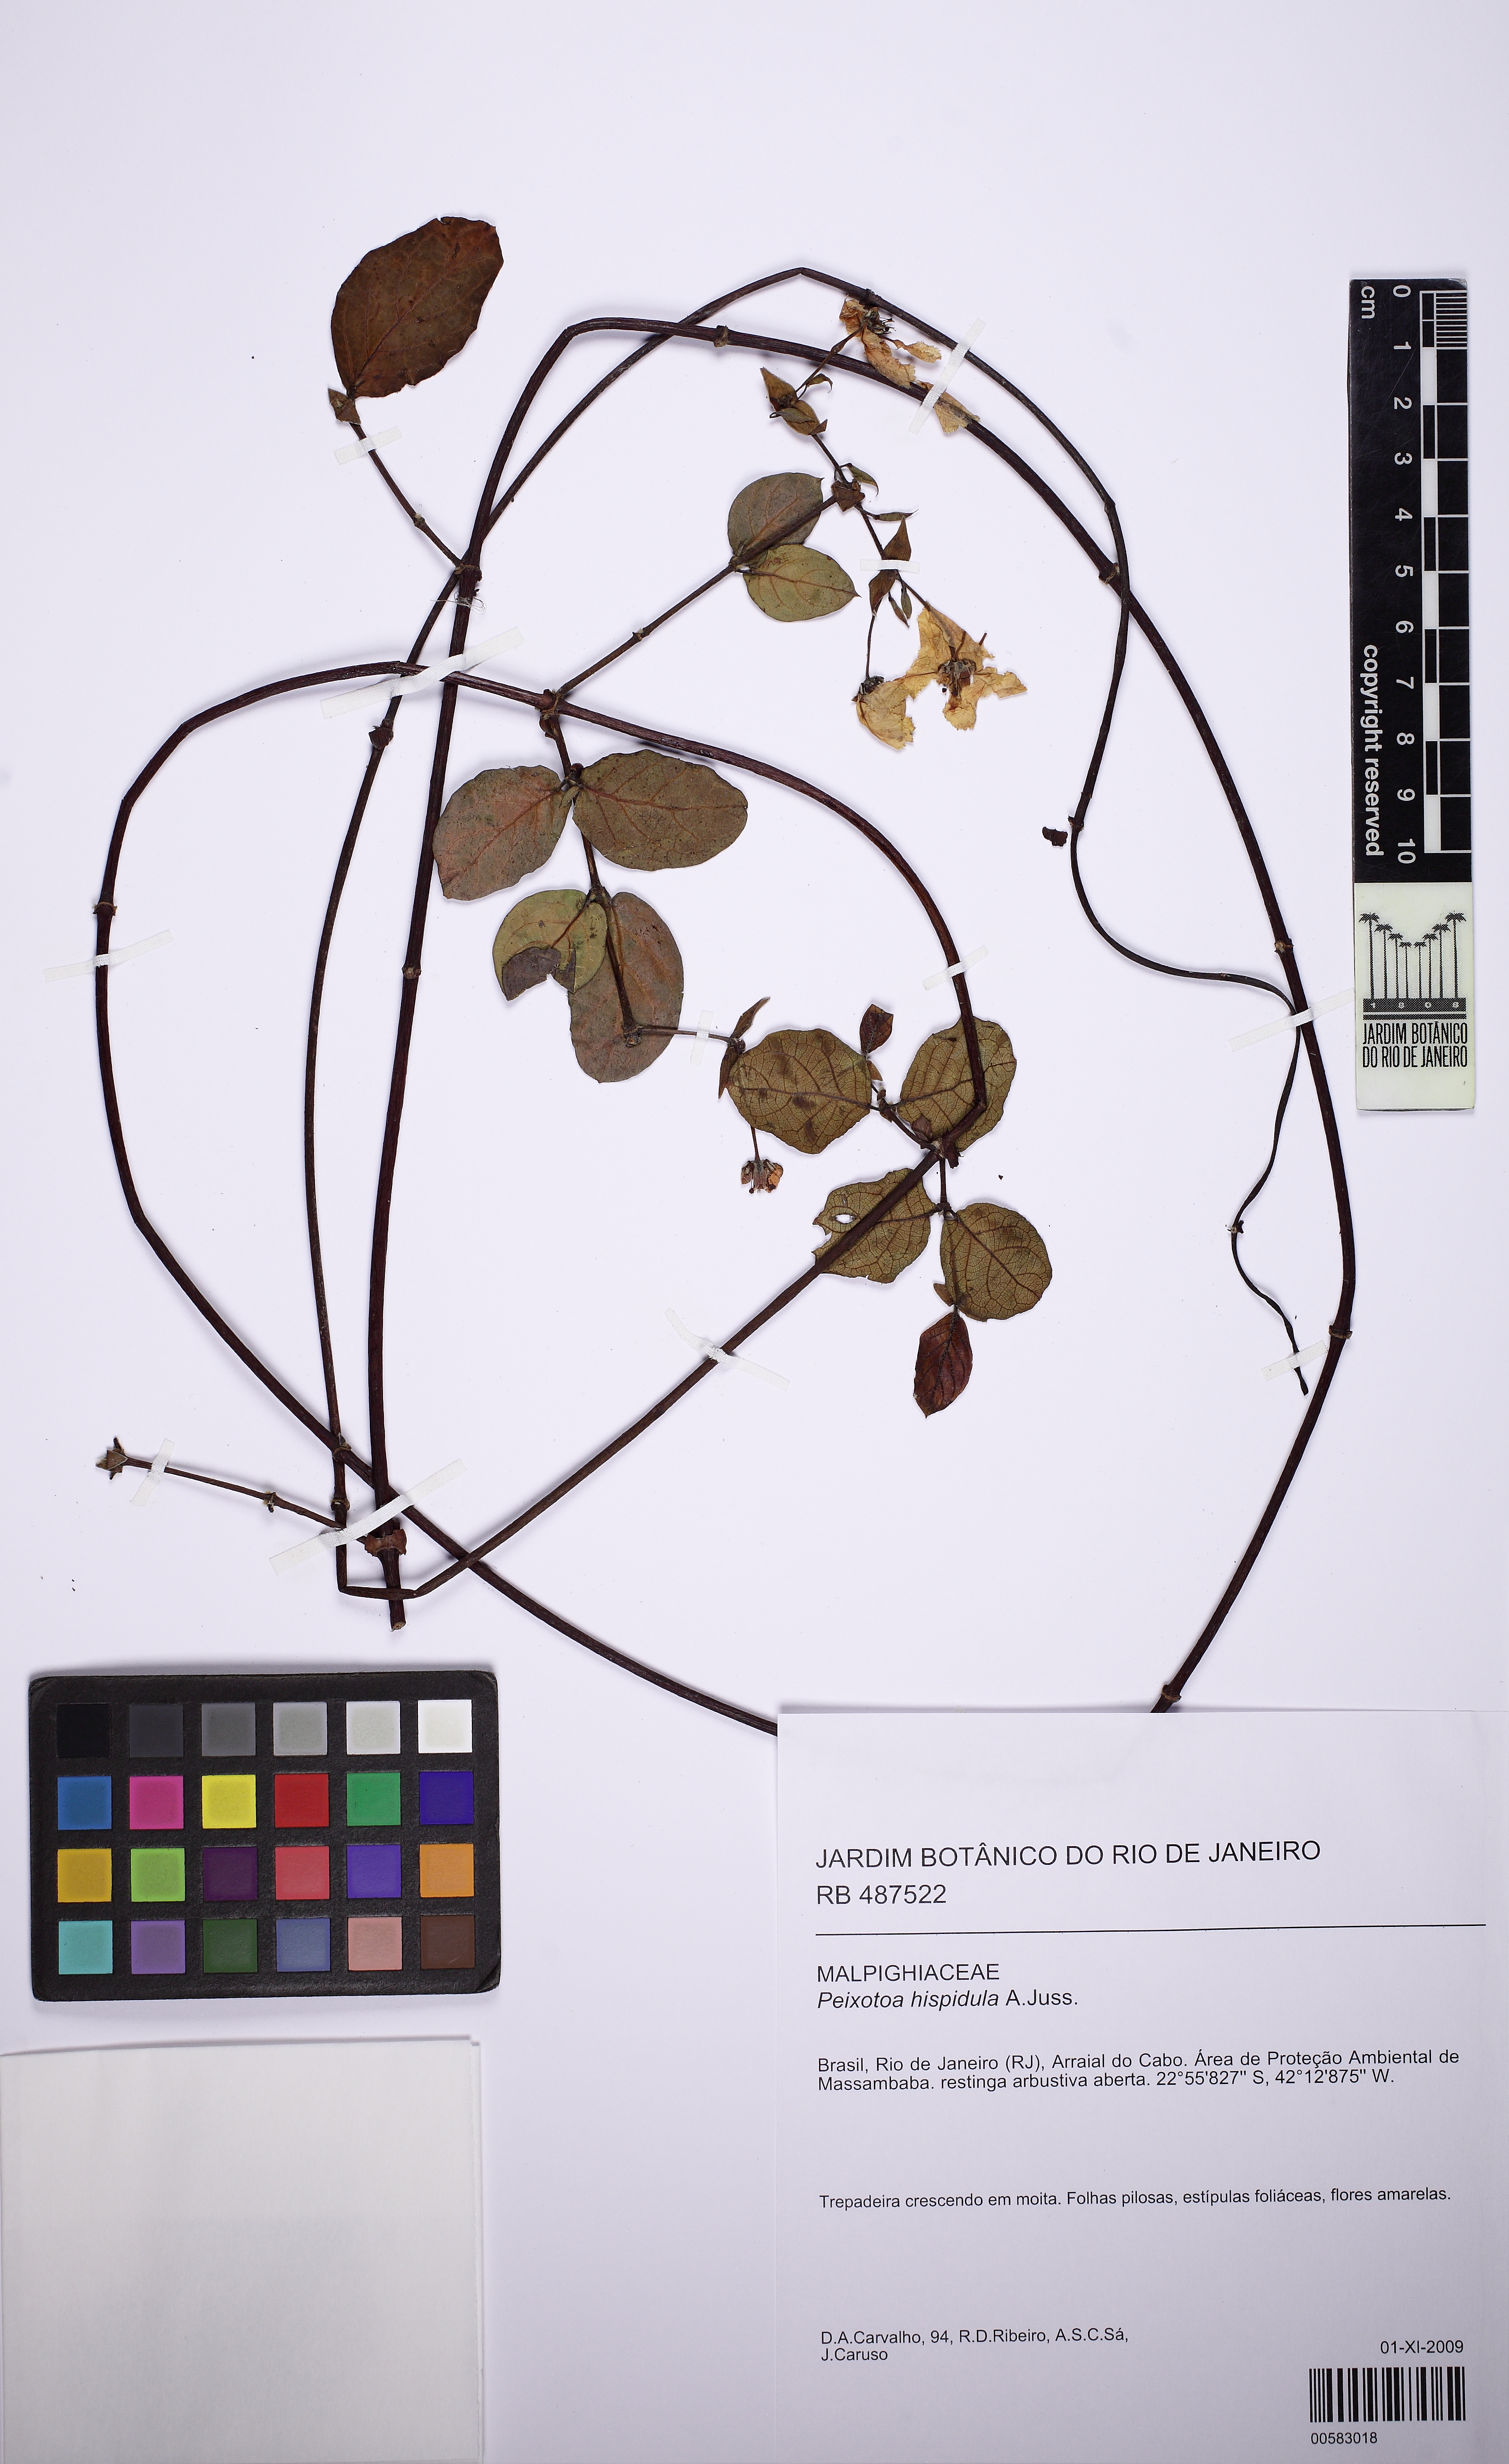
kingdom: Plantae
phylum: Tracheophyta
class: Magnoliopsida
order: Malpighiales
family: Malpighiaceae
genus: Peixotoa
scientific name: Peixotoa hispidula
